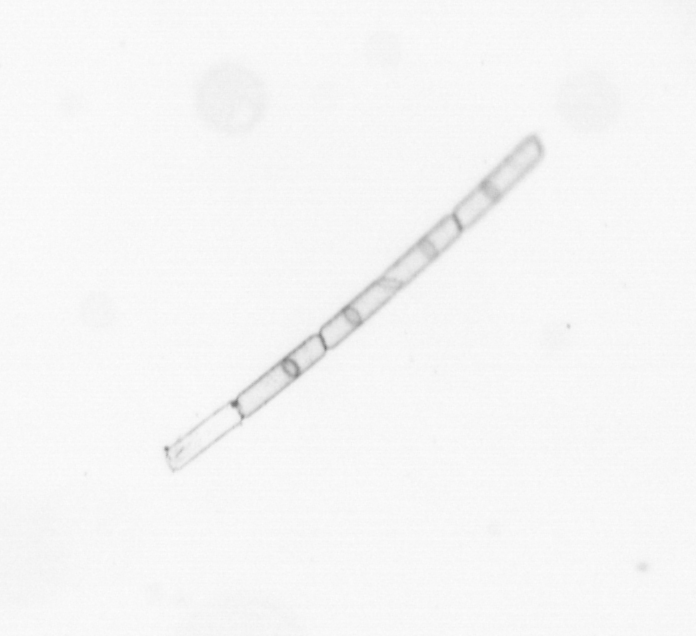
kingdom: Chromista
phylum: Ochrophyta
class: Bacillariophyceae
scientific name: Bacillariophyceae
